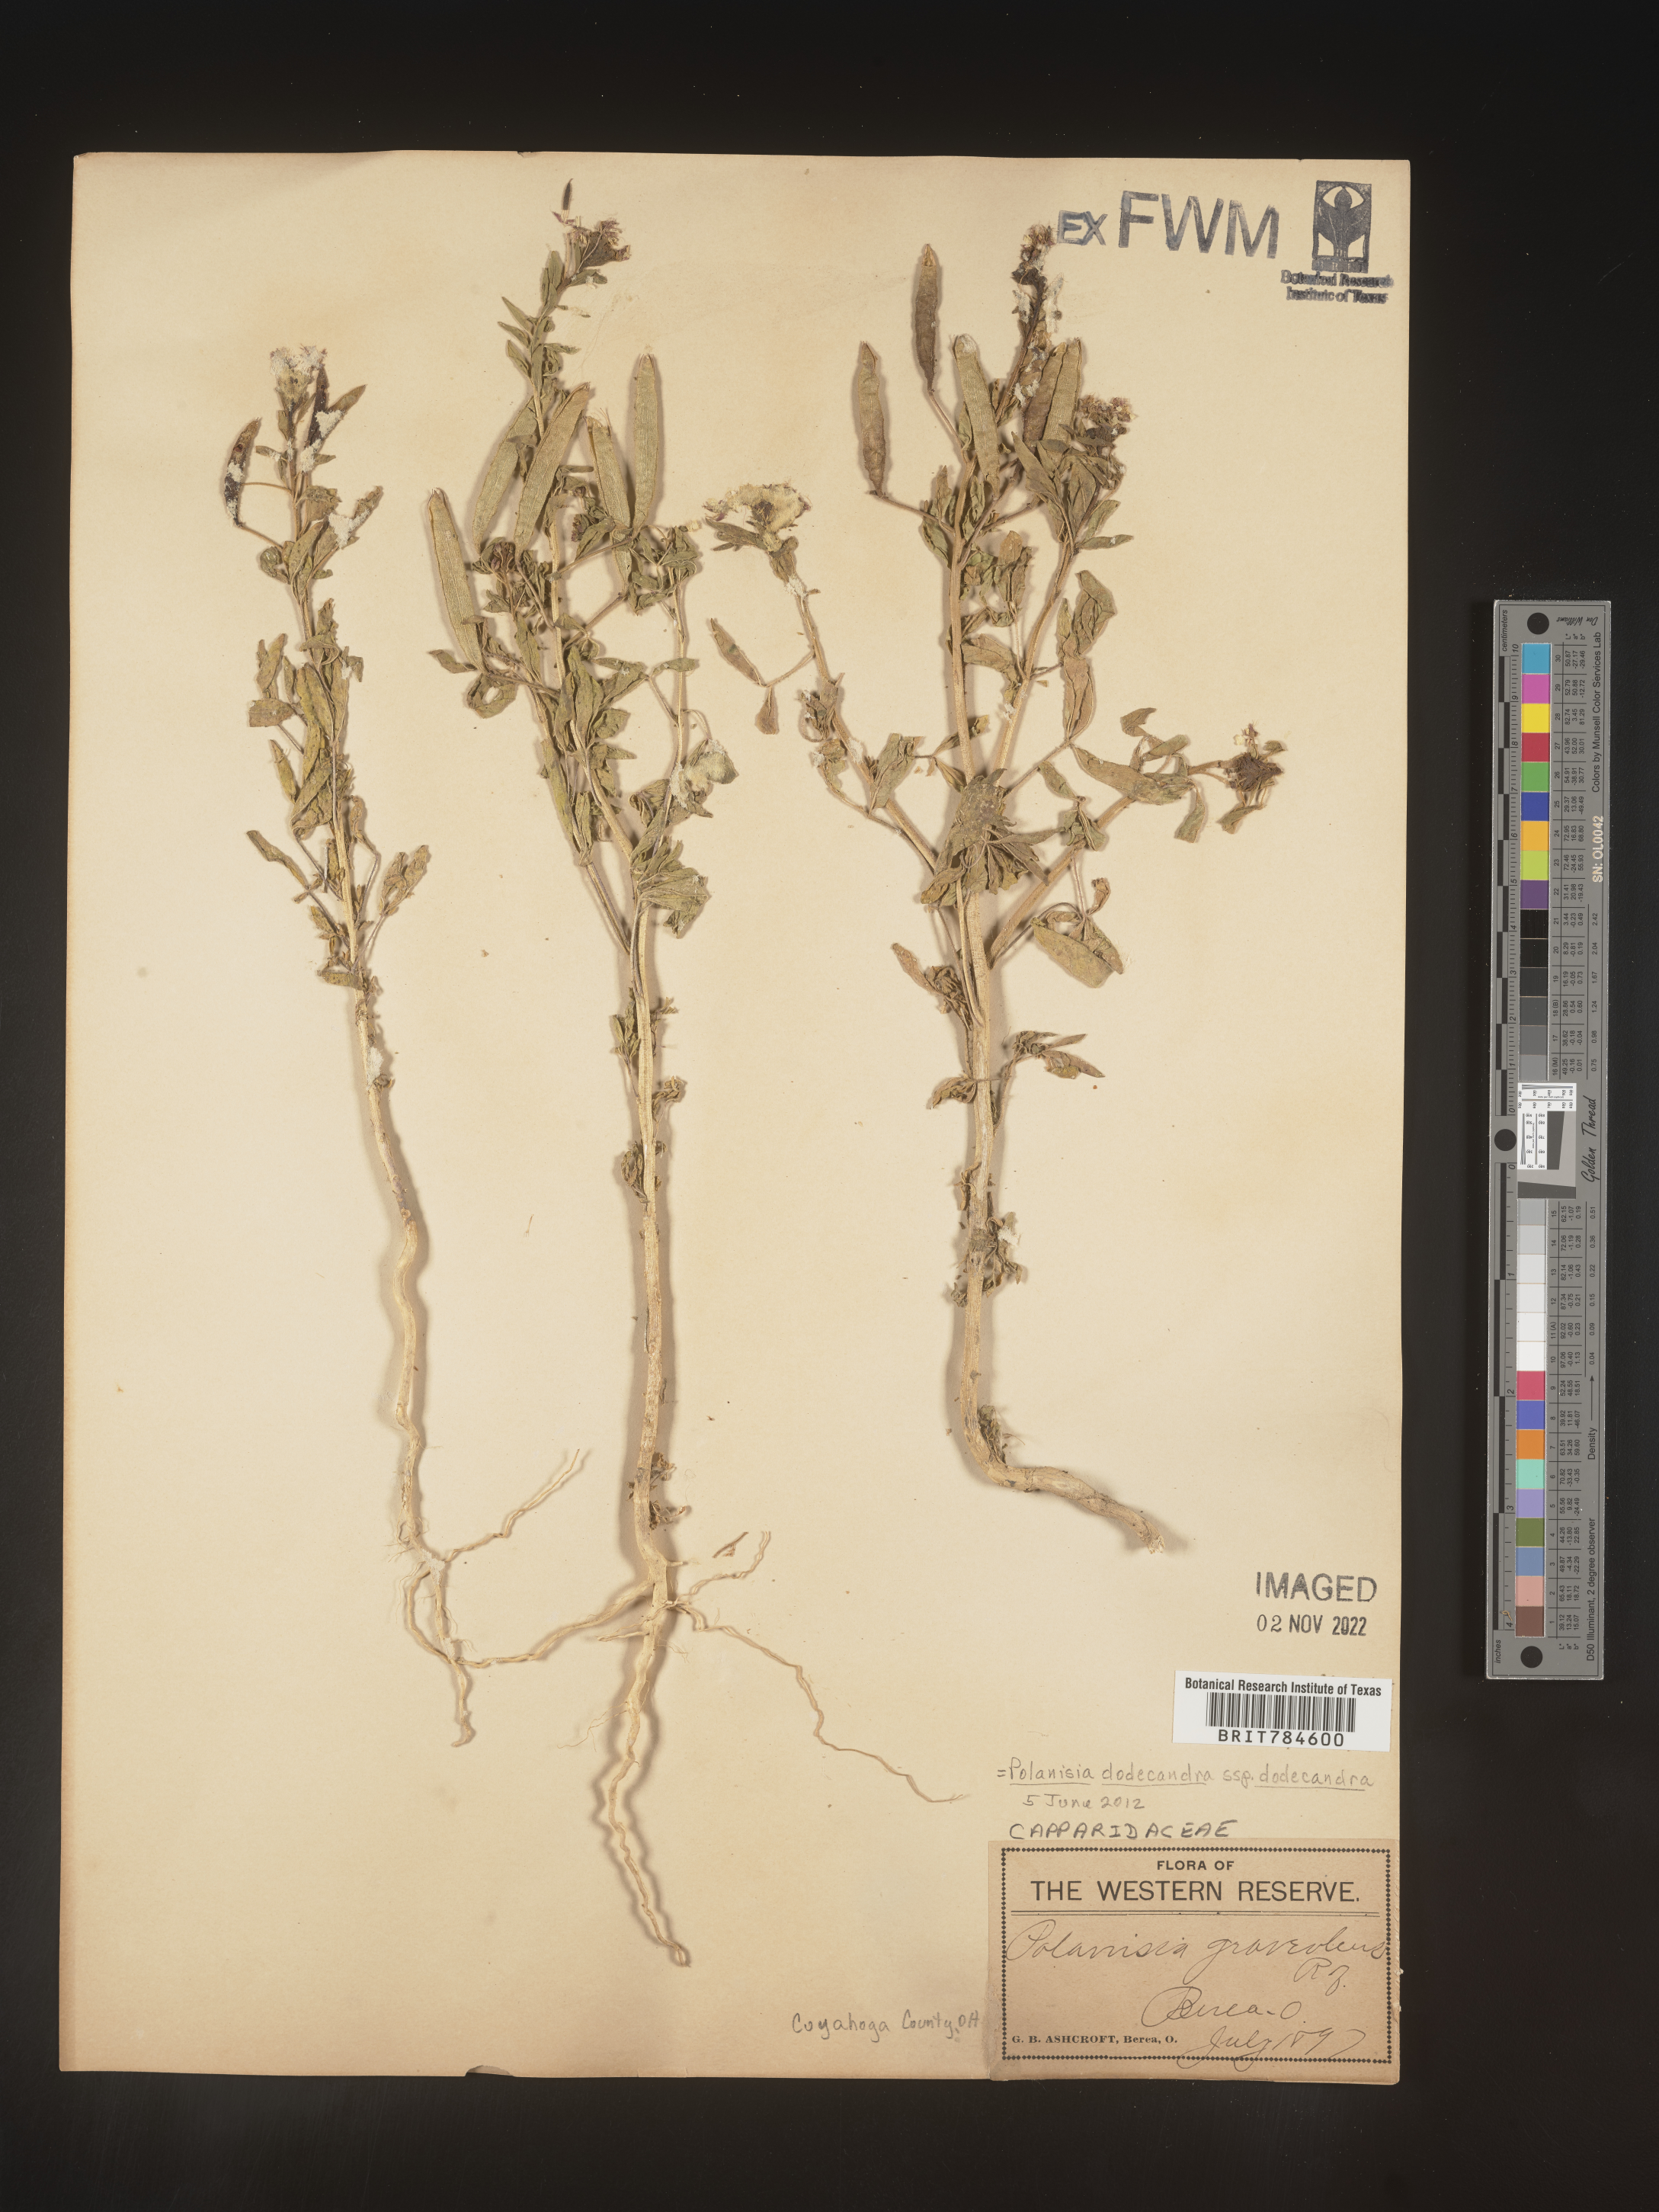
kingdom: Plantae
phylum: Tracheophyta
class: Magnoliopsida
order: Brassicales
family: Cleomaceae
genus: Polanisia
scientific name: Polanisia dodecandra
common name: Clammyweed
